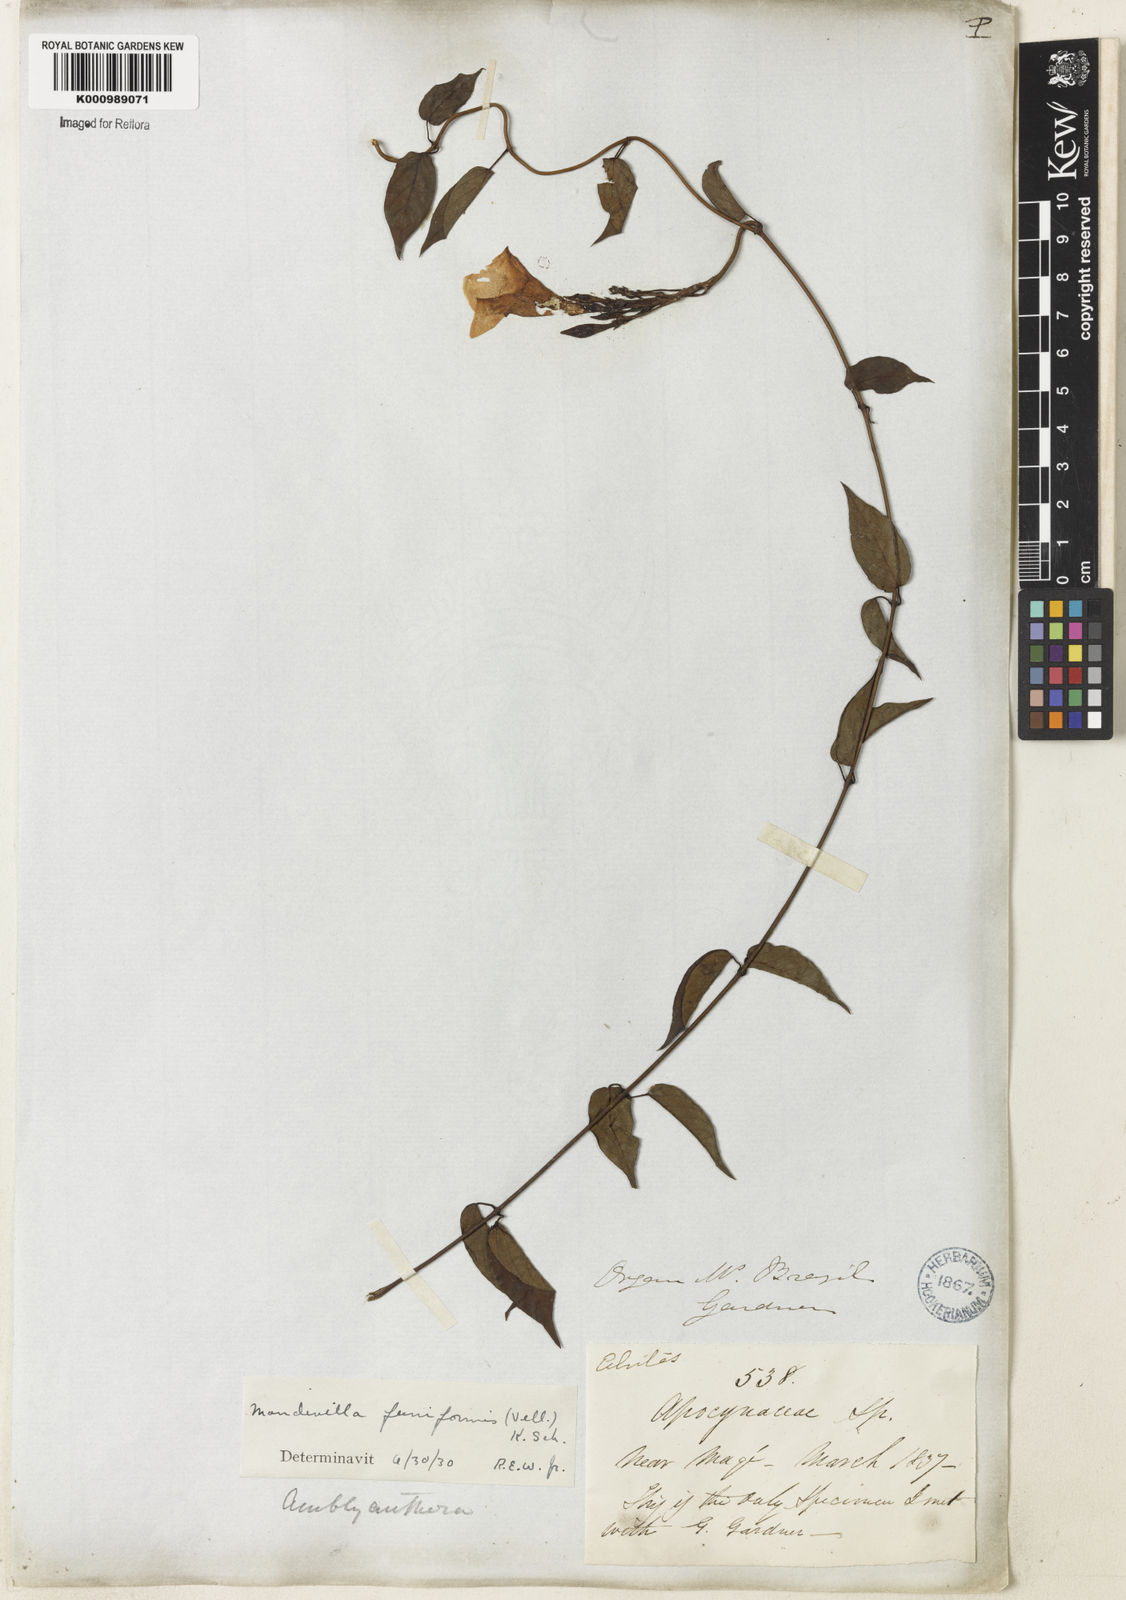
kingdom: Plantae
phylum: Tracheophyta
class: Magnoliopsida
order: Gentianales
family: Apocynaceae
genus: Mandevilla
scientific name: Mandevilla funiformis
